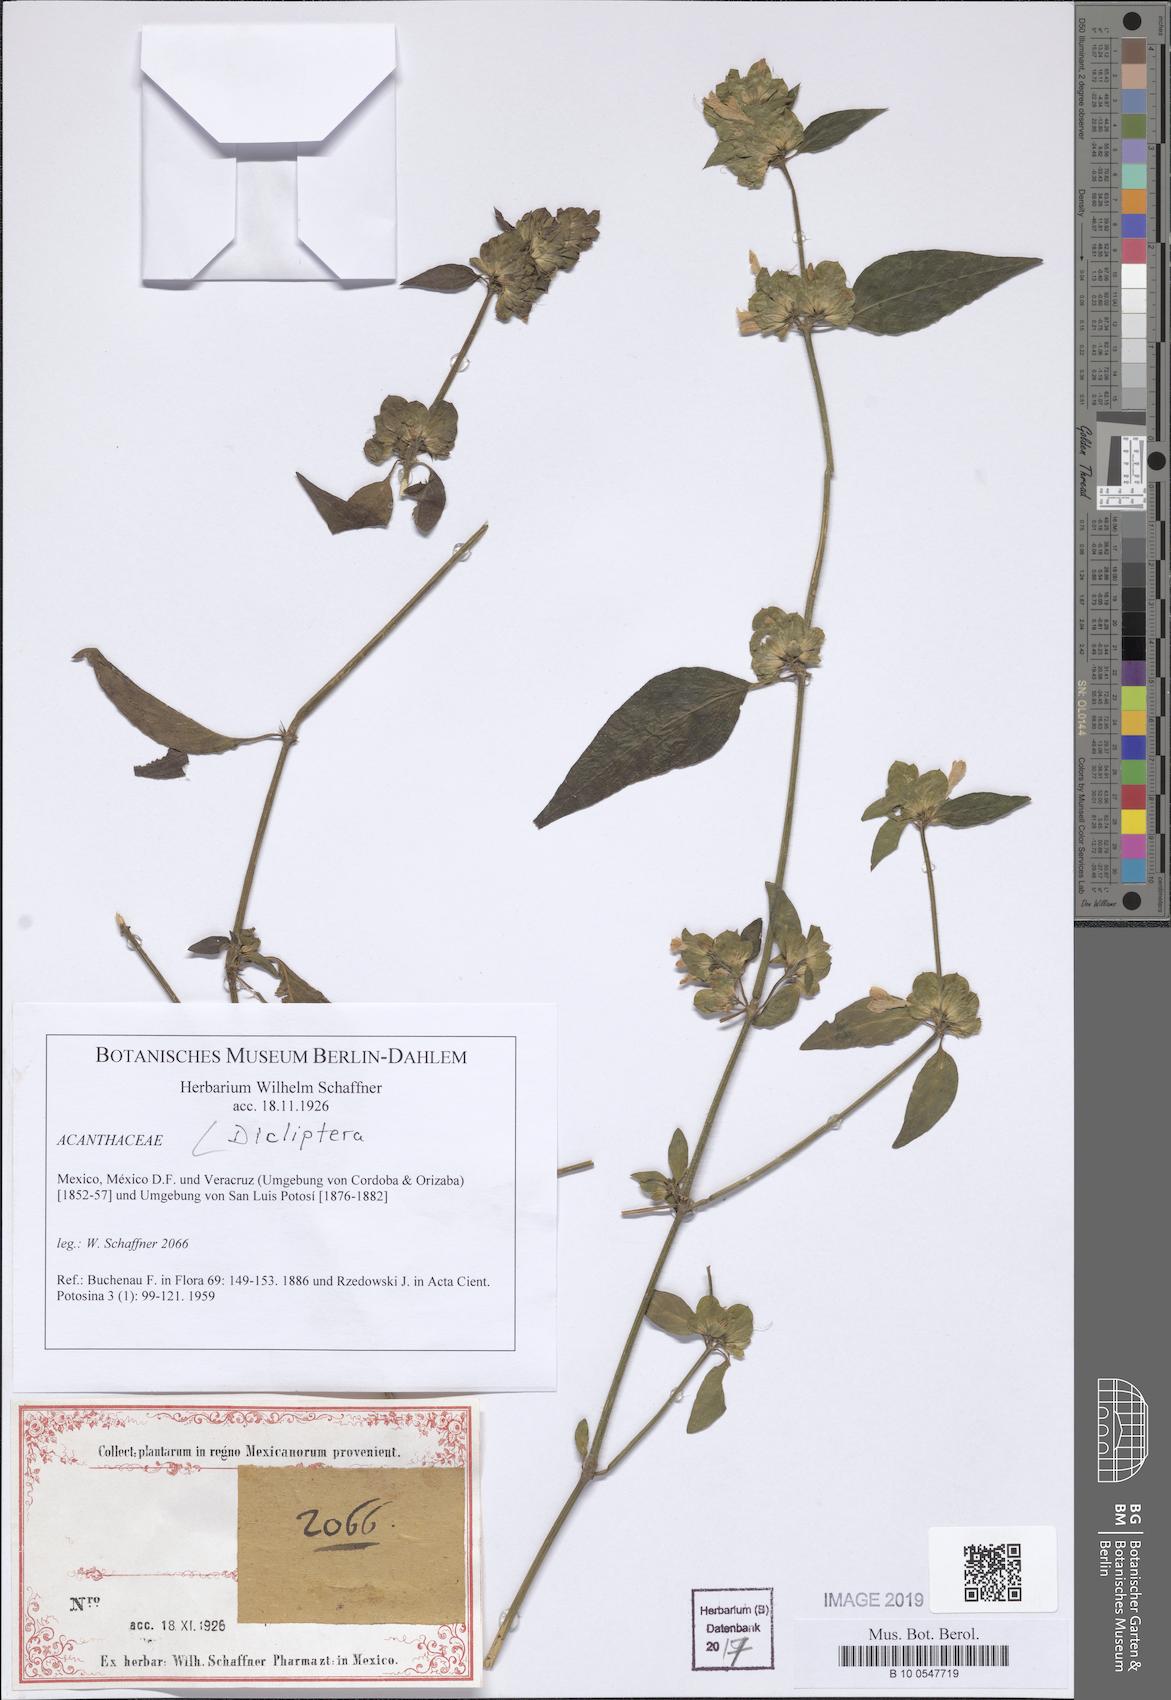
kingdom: Plantae
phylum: Tracheophyta
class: Magnoliopsida
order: Lamiales
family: Acanthaceae
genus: Dicliptera
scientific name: Dicliptera
